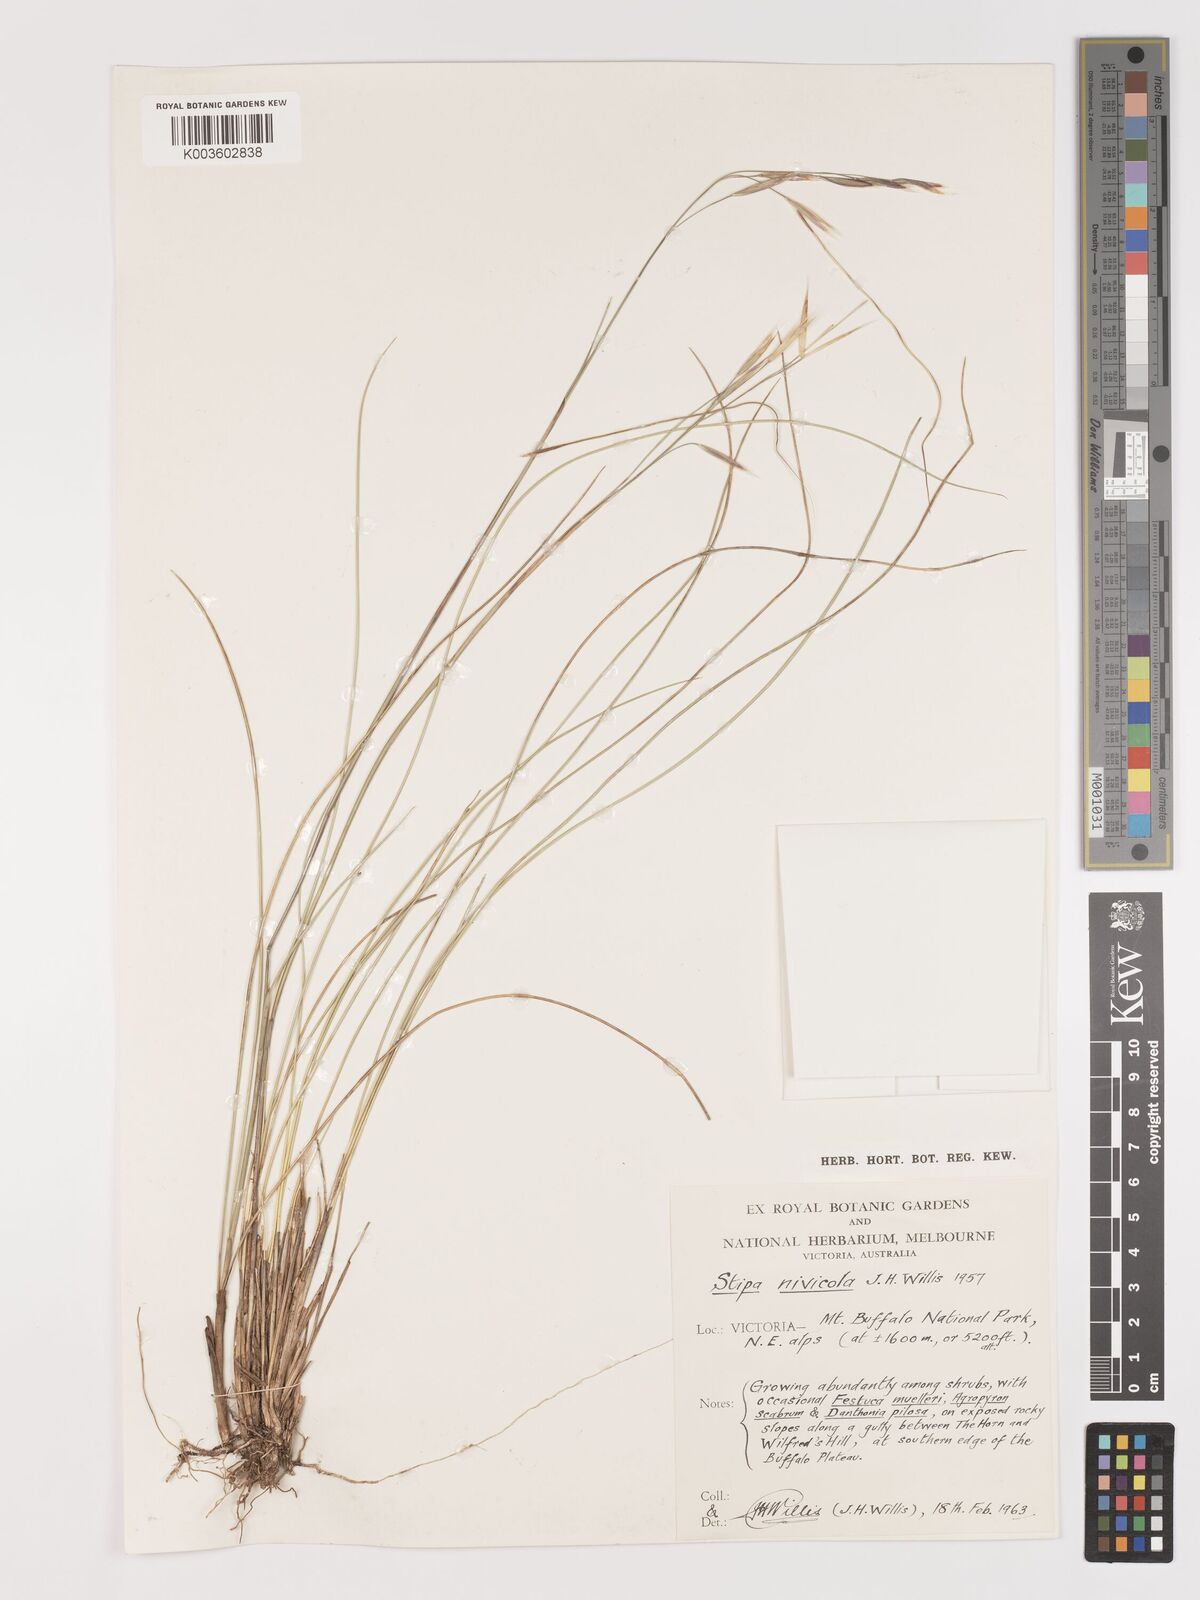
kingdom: Plantae
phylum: Tracheophyta
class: Liliopsida
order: Poales
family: Poaceae
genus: Austrostipa
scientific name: Austrostipa nivicola
